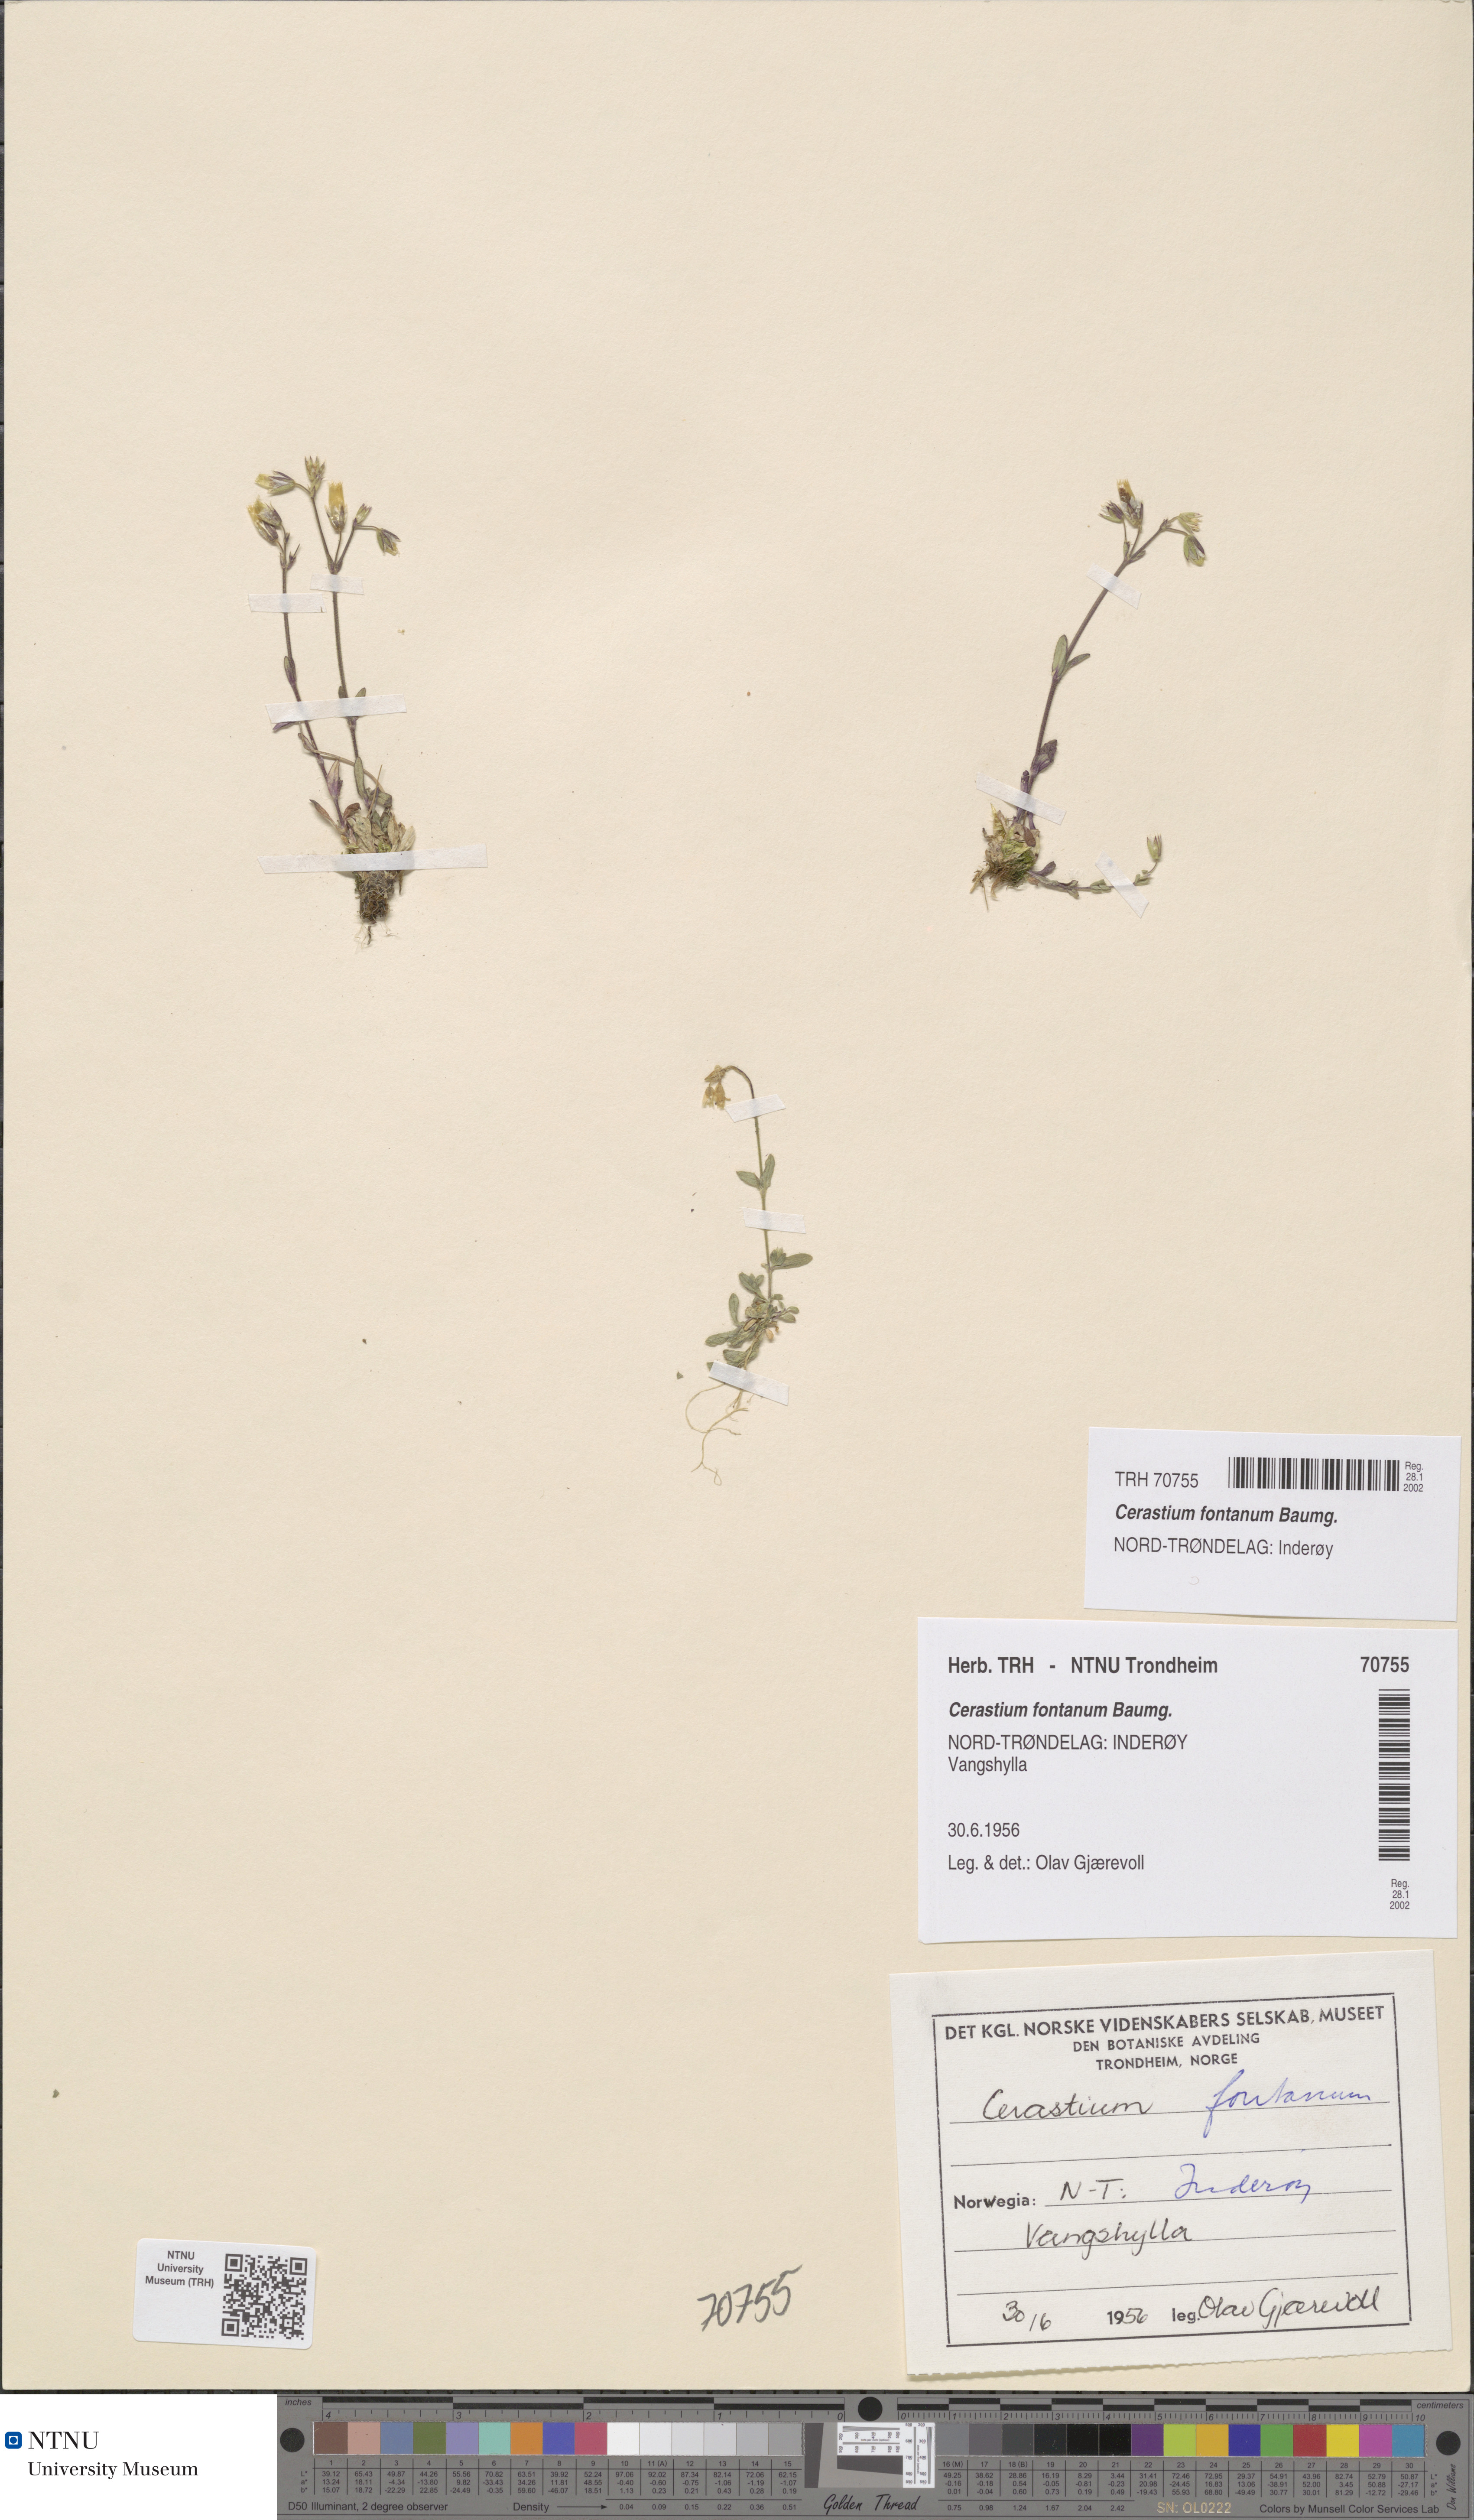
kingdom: Plantae
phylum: Tracheophyta
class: Magnoliopsida
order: Caryophyllales
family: Caryophyllaceae
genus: Cerastium
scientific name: Cerastium fontanum
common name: Common mouse-ear
